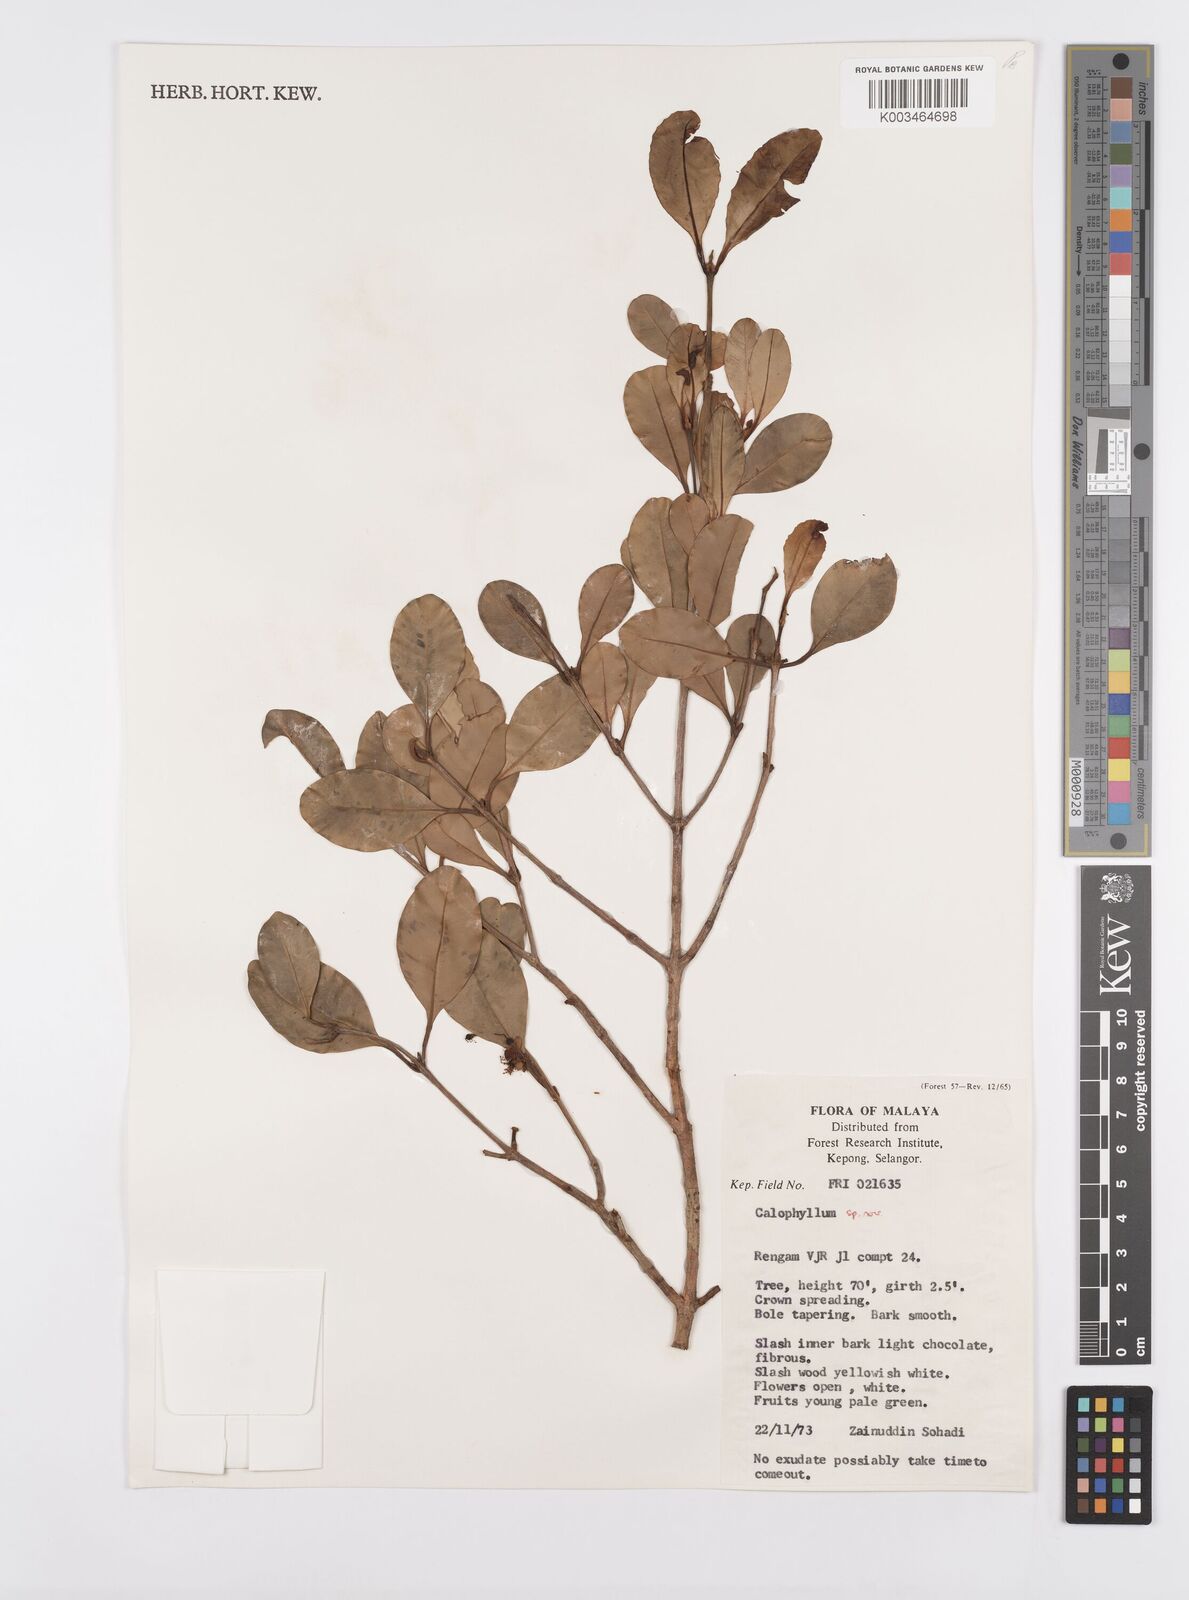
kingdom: Plantae
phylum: Tracheophyta
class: Magnoliopsida
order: Malpighiales
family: Calophyllaceae
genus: Calophyllum
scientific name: Calophyllum
